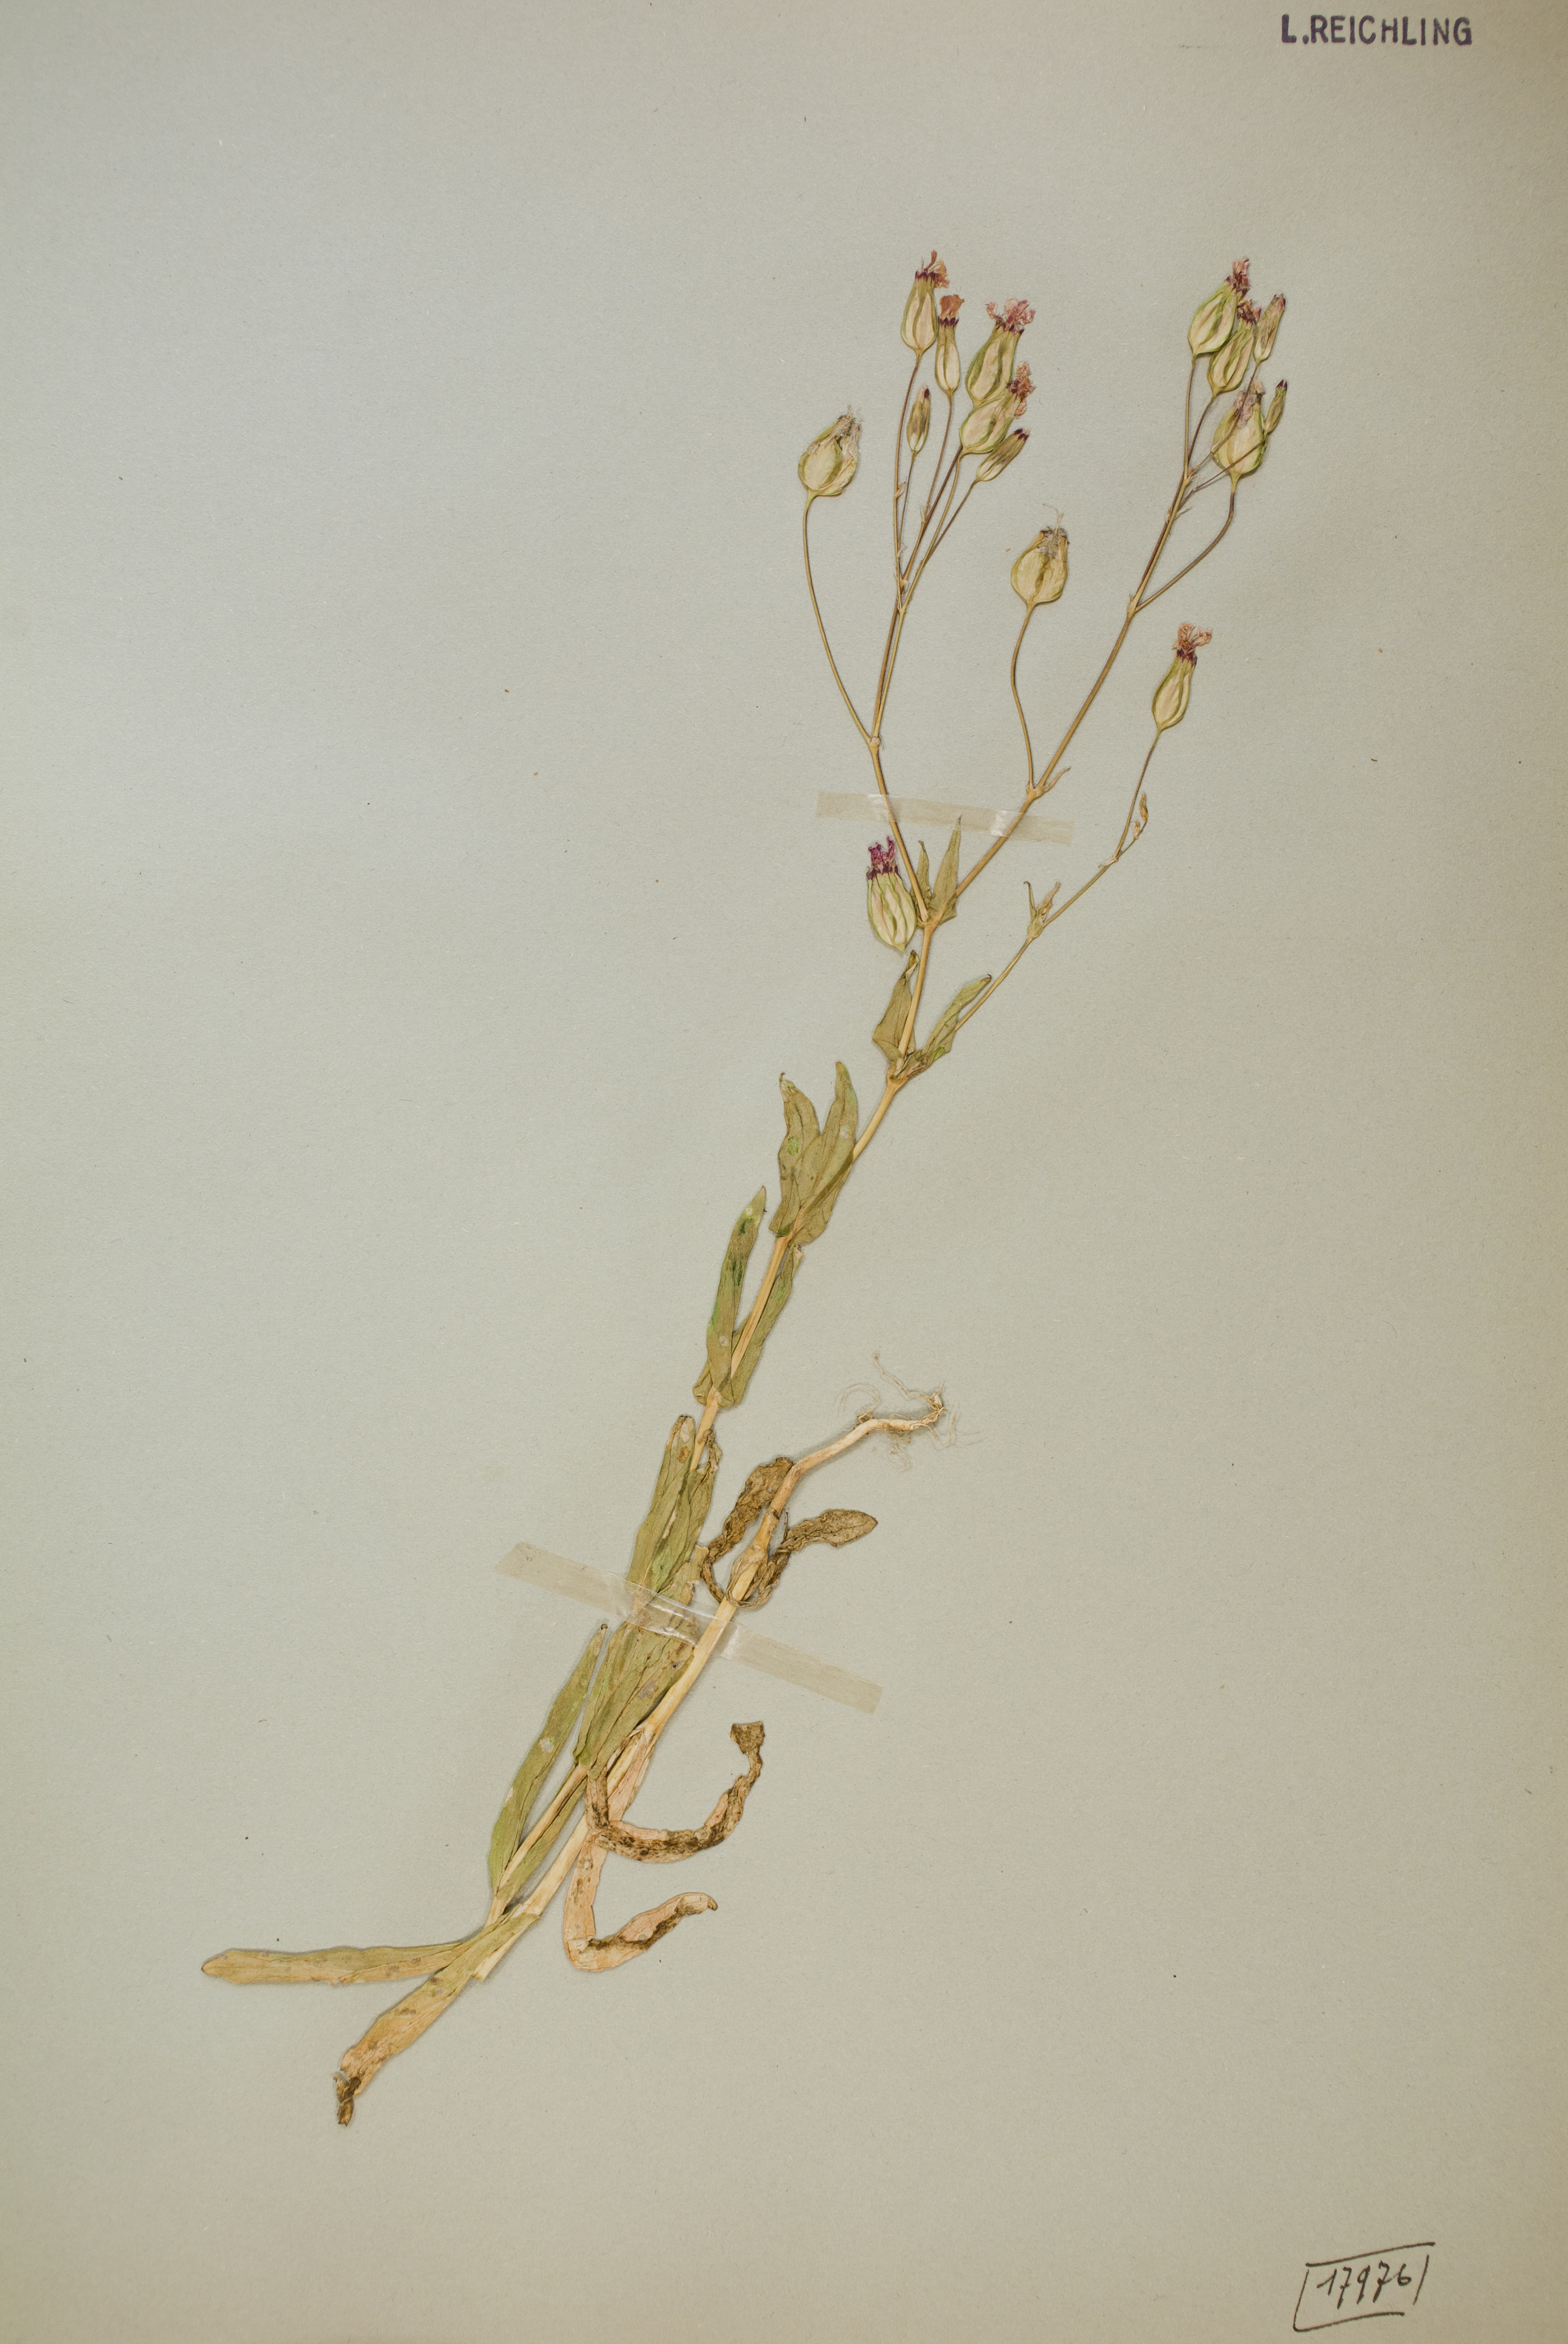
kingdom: Plantae
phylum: Tracheophyta
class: Magnoliopsida
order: Caryophyllales
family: Caryophyllaceae
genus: Gypsophila
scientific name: Gypsophila vaccaria
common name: Cow soapwort
